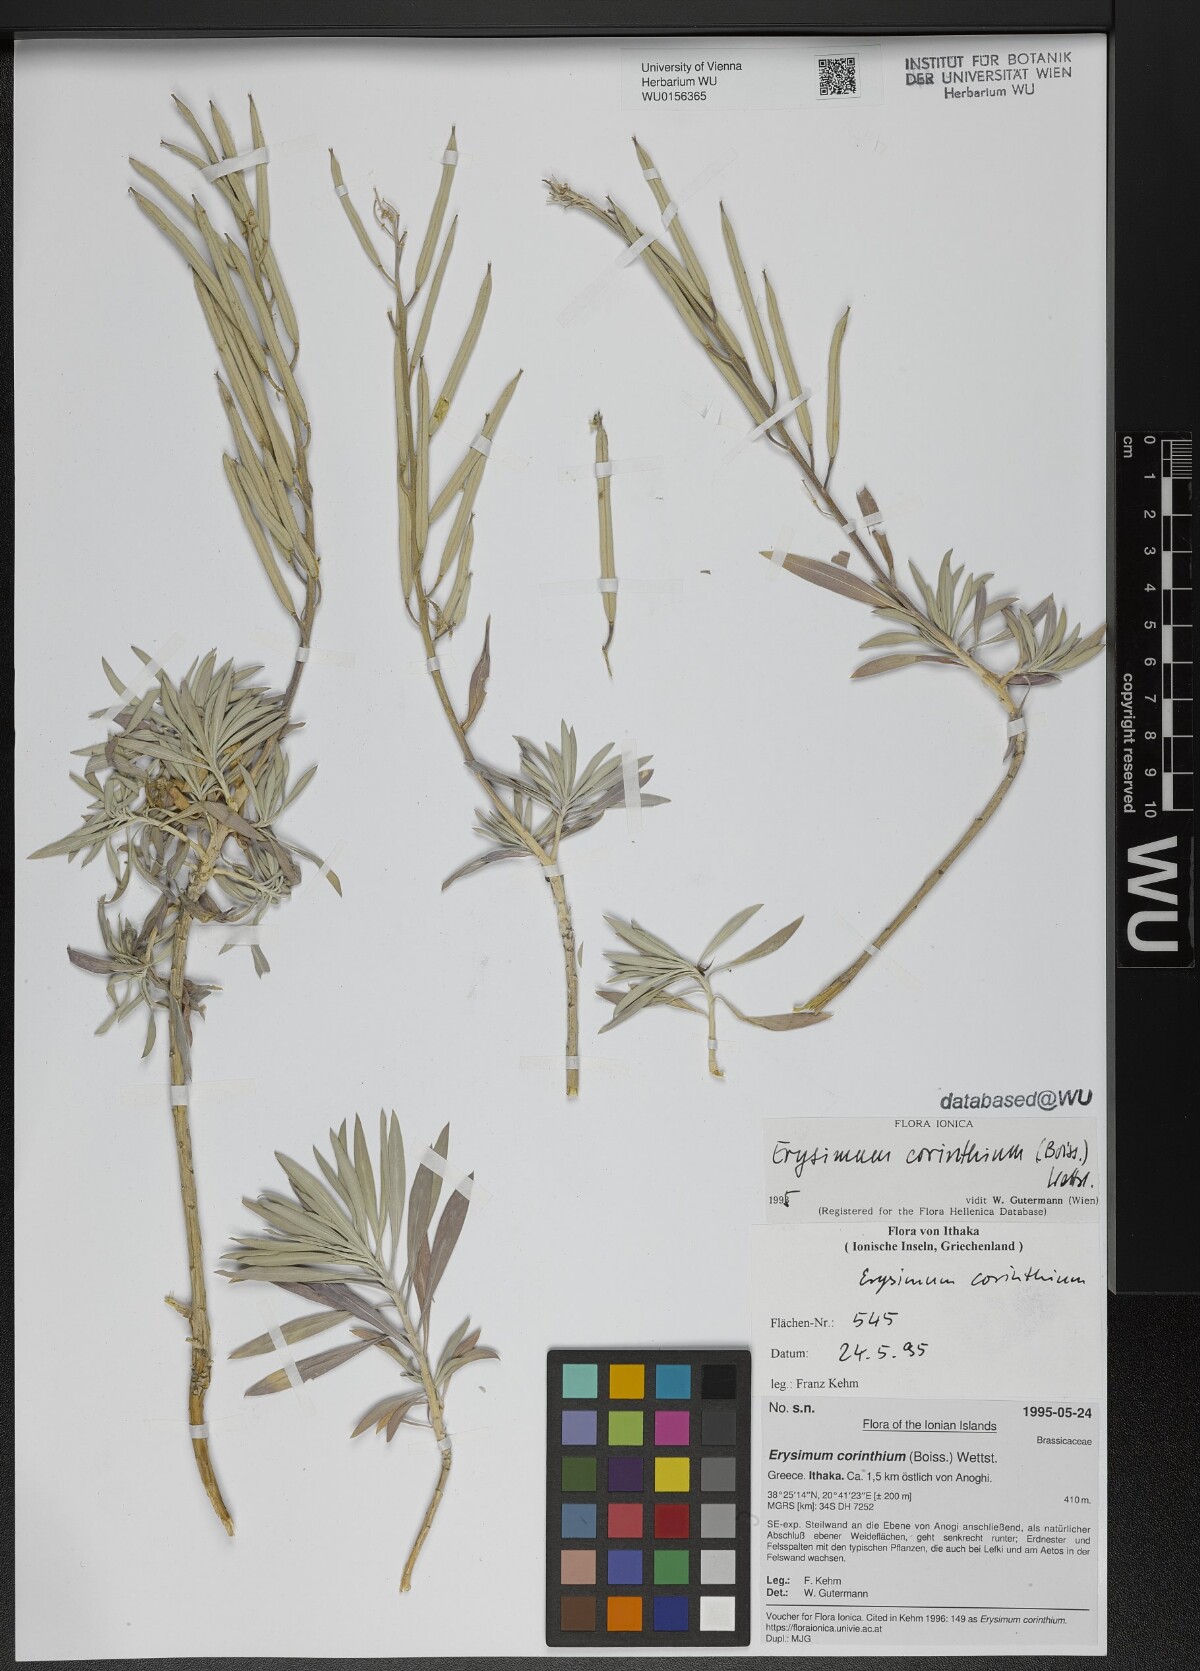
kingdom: Plantae
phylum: Tracheophyta
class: Magnoliopsida
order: Brassicales
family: Brassicaceae
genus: Erysimum
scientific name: Erysimum corinthium
